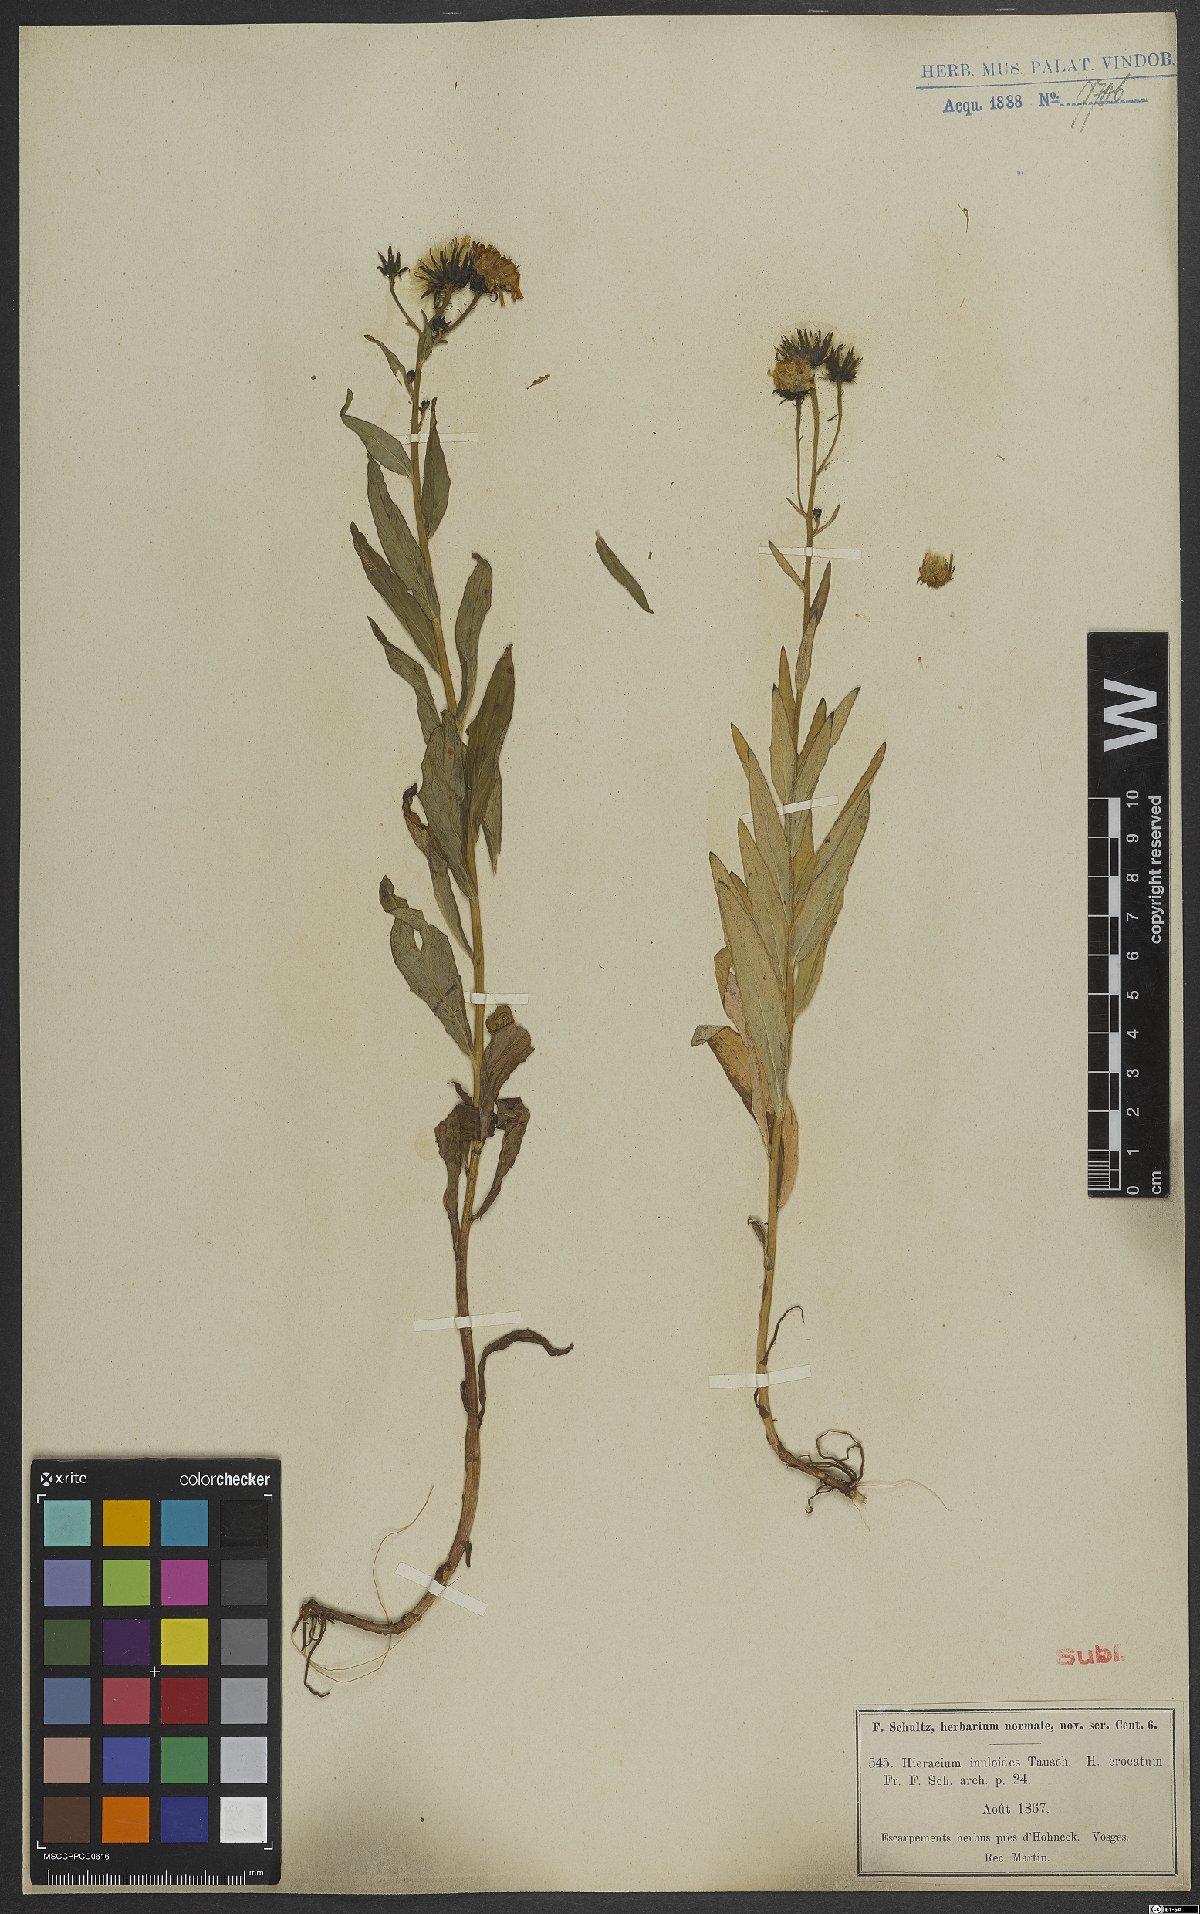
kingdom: Plantae
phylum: Tracheophyta
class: Magnoliopsida
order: Asterales
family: Asteraceae
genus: Hieracium
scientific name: Hieracium inuloides
